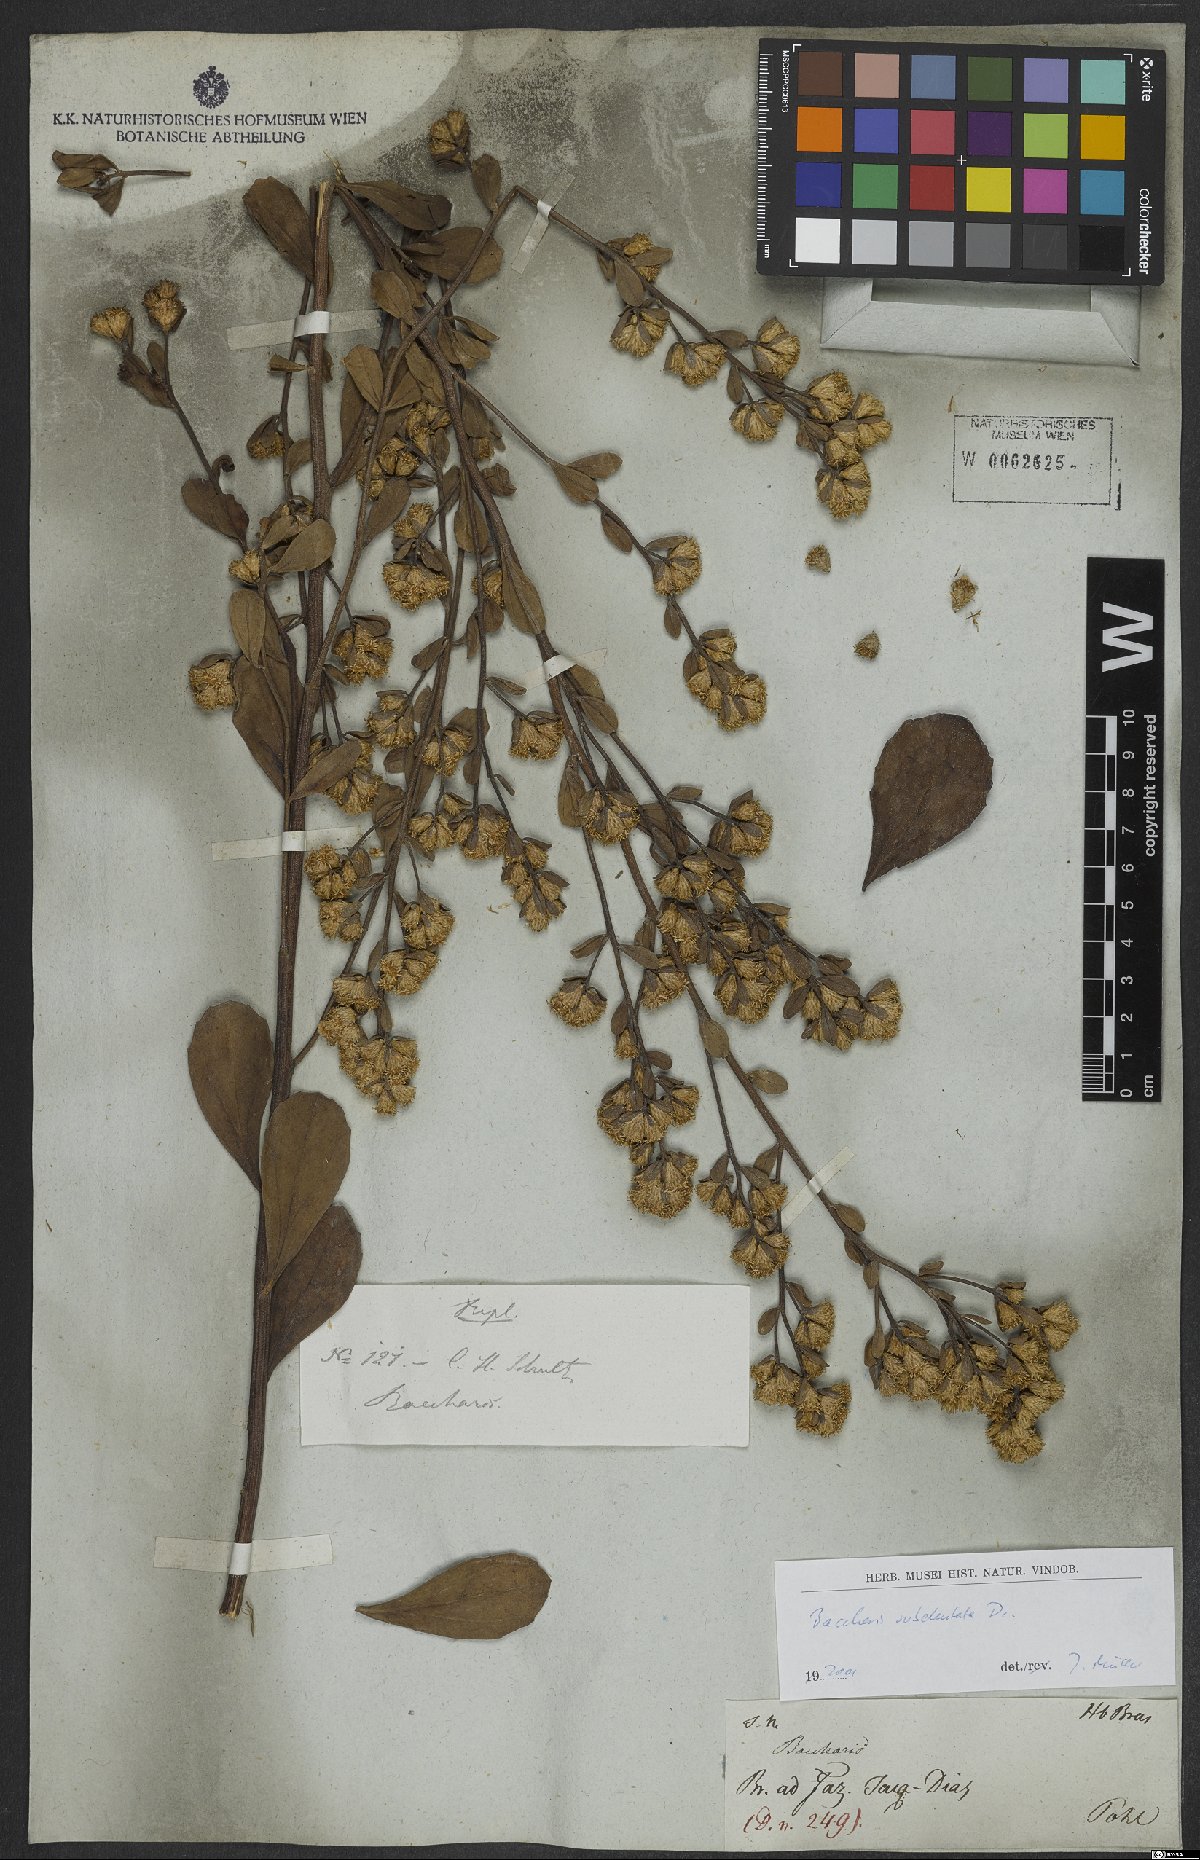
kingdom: Plantae
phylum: Tracheophyta
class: Magnoliopsida
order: Asterales
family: Asteraceae
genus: Baccharis
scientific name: Baccharis subdentata
